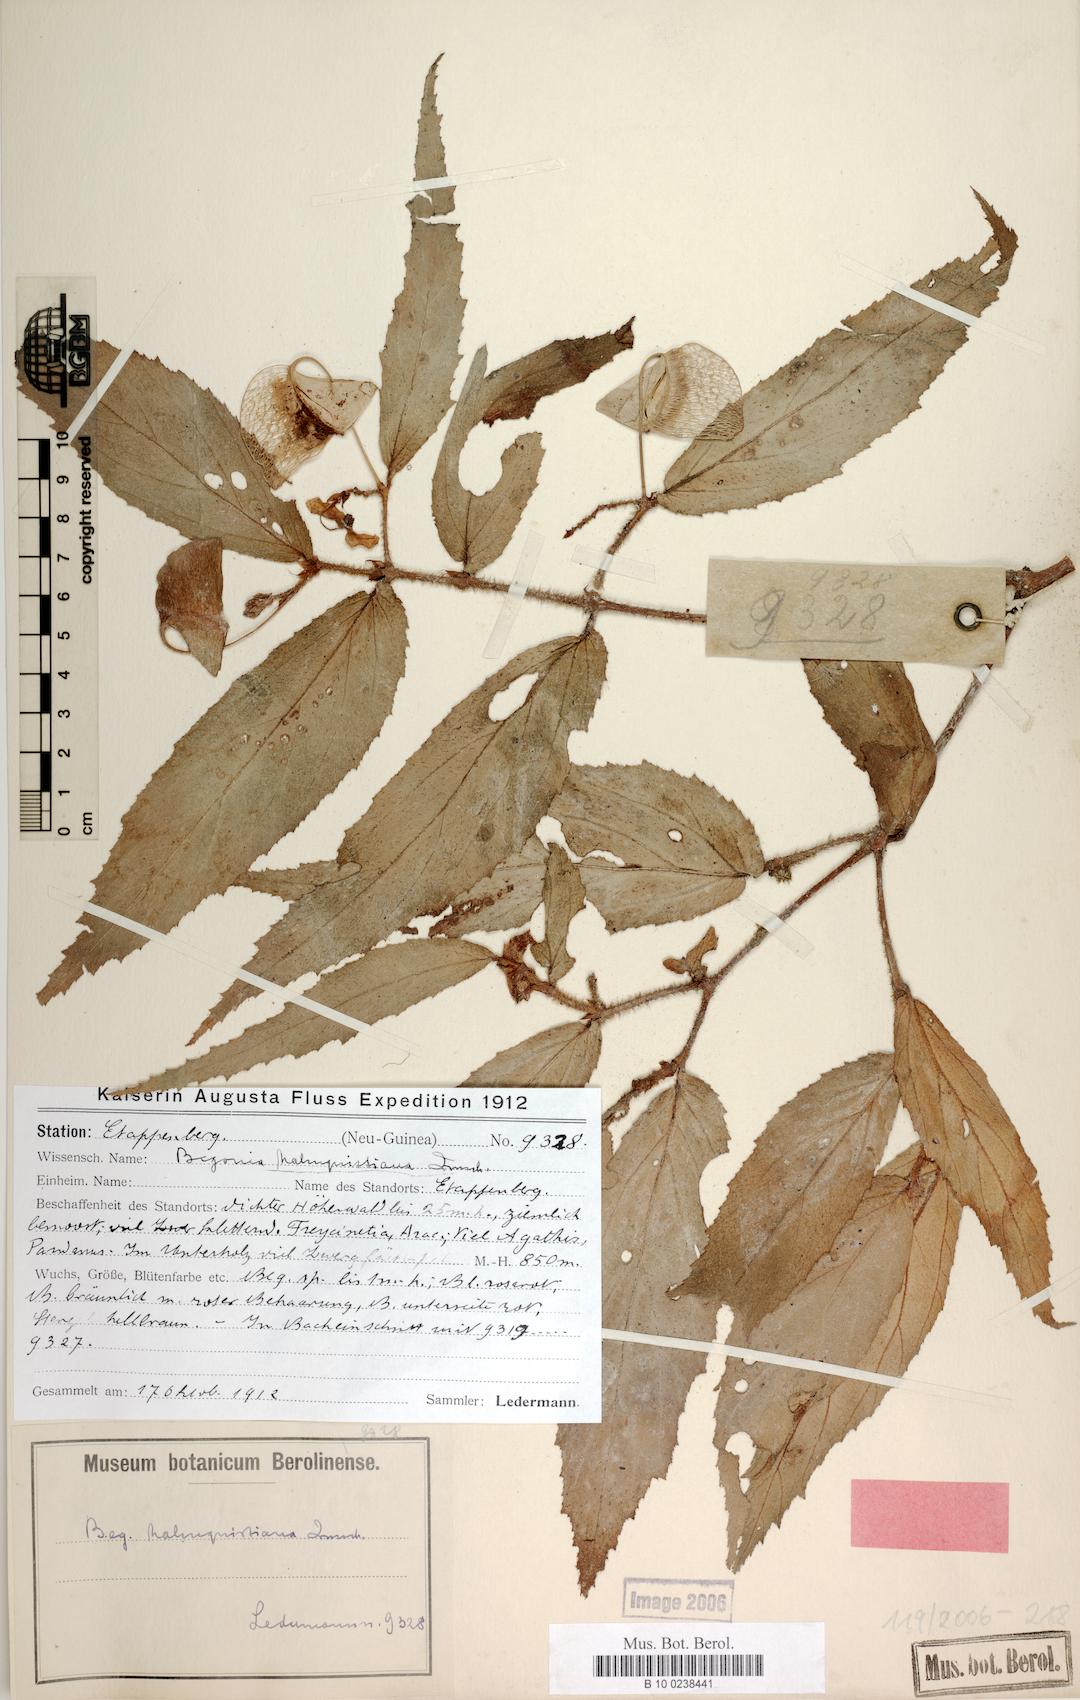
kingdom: Plantae
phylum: Tracheophyta
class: Magnoliopsida
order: Cucurbitales
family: Begoniaceae
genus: Begonia
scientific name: Begonia malmquistiana
